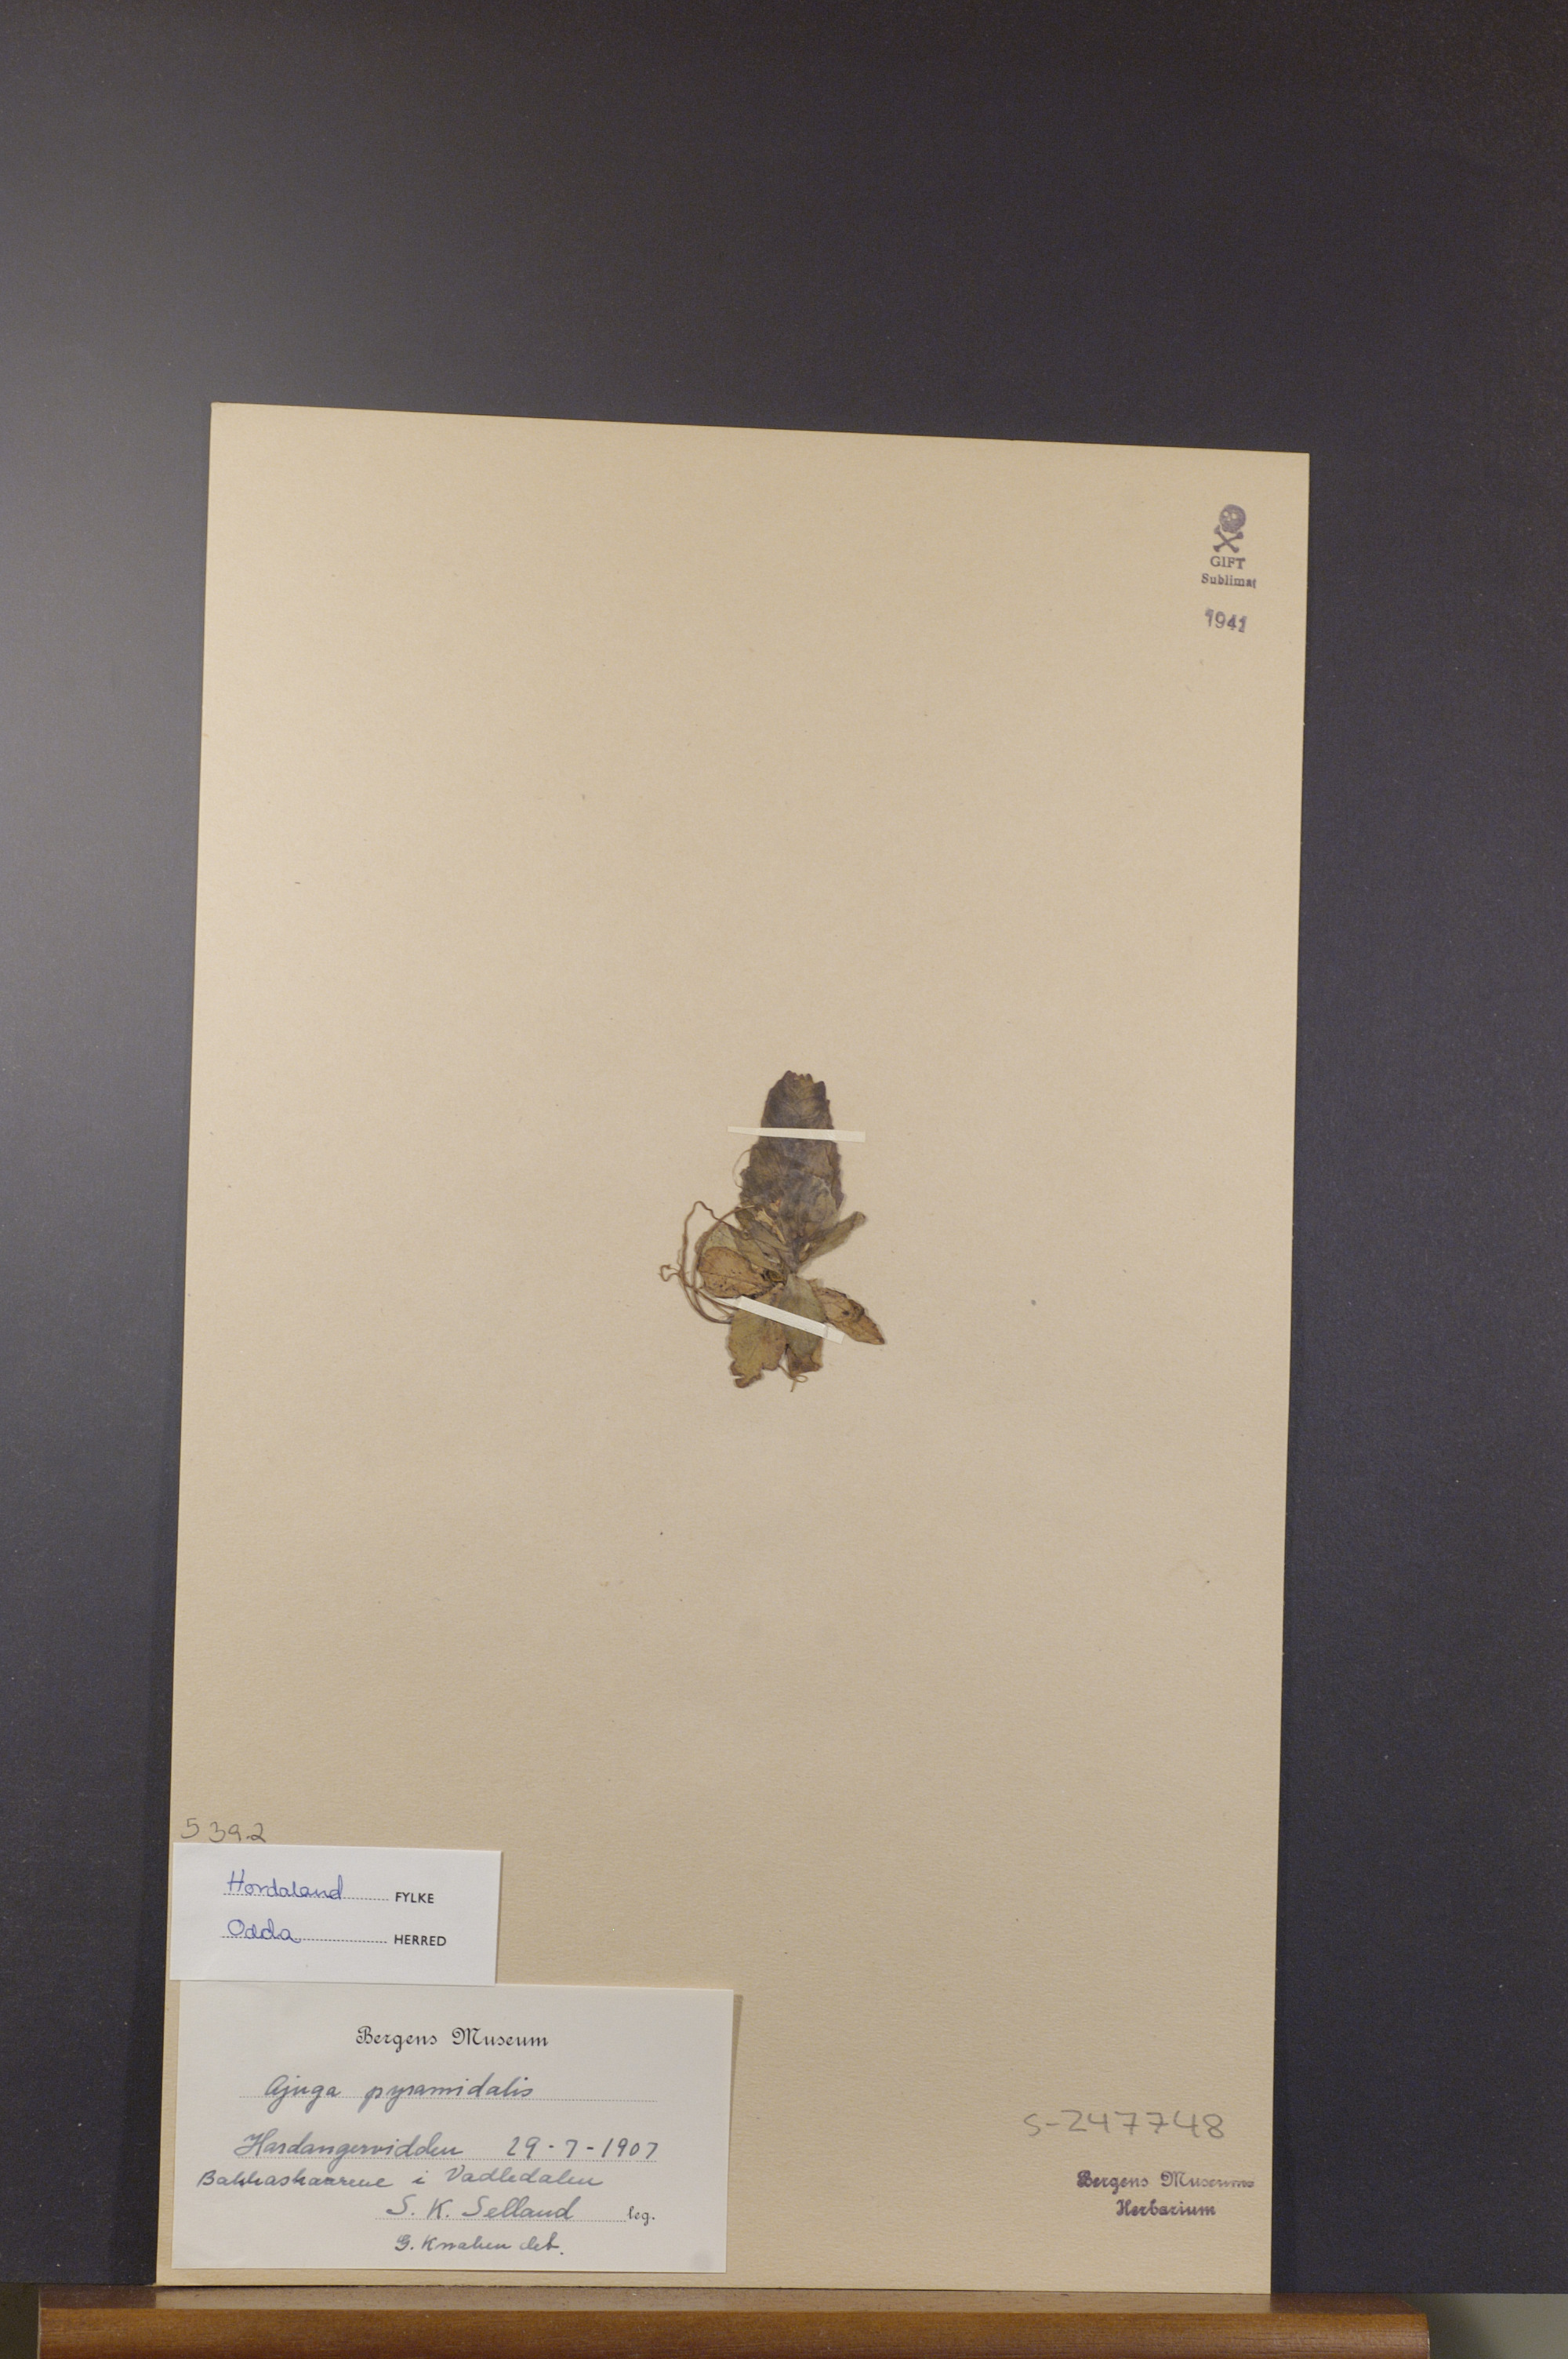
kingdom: Plantae
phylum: Tracheophyta
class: Magnoliopsida
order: Lamiales
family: Lamiaceae
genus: Ajuga
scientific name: Ajuga pyramidalis
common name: Pyramid bugle
